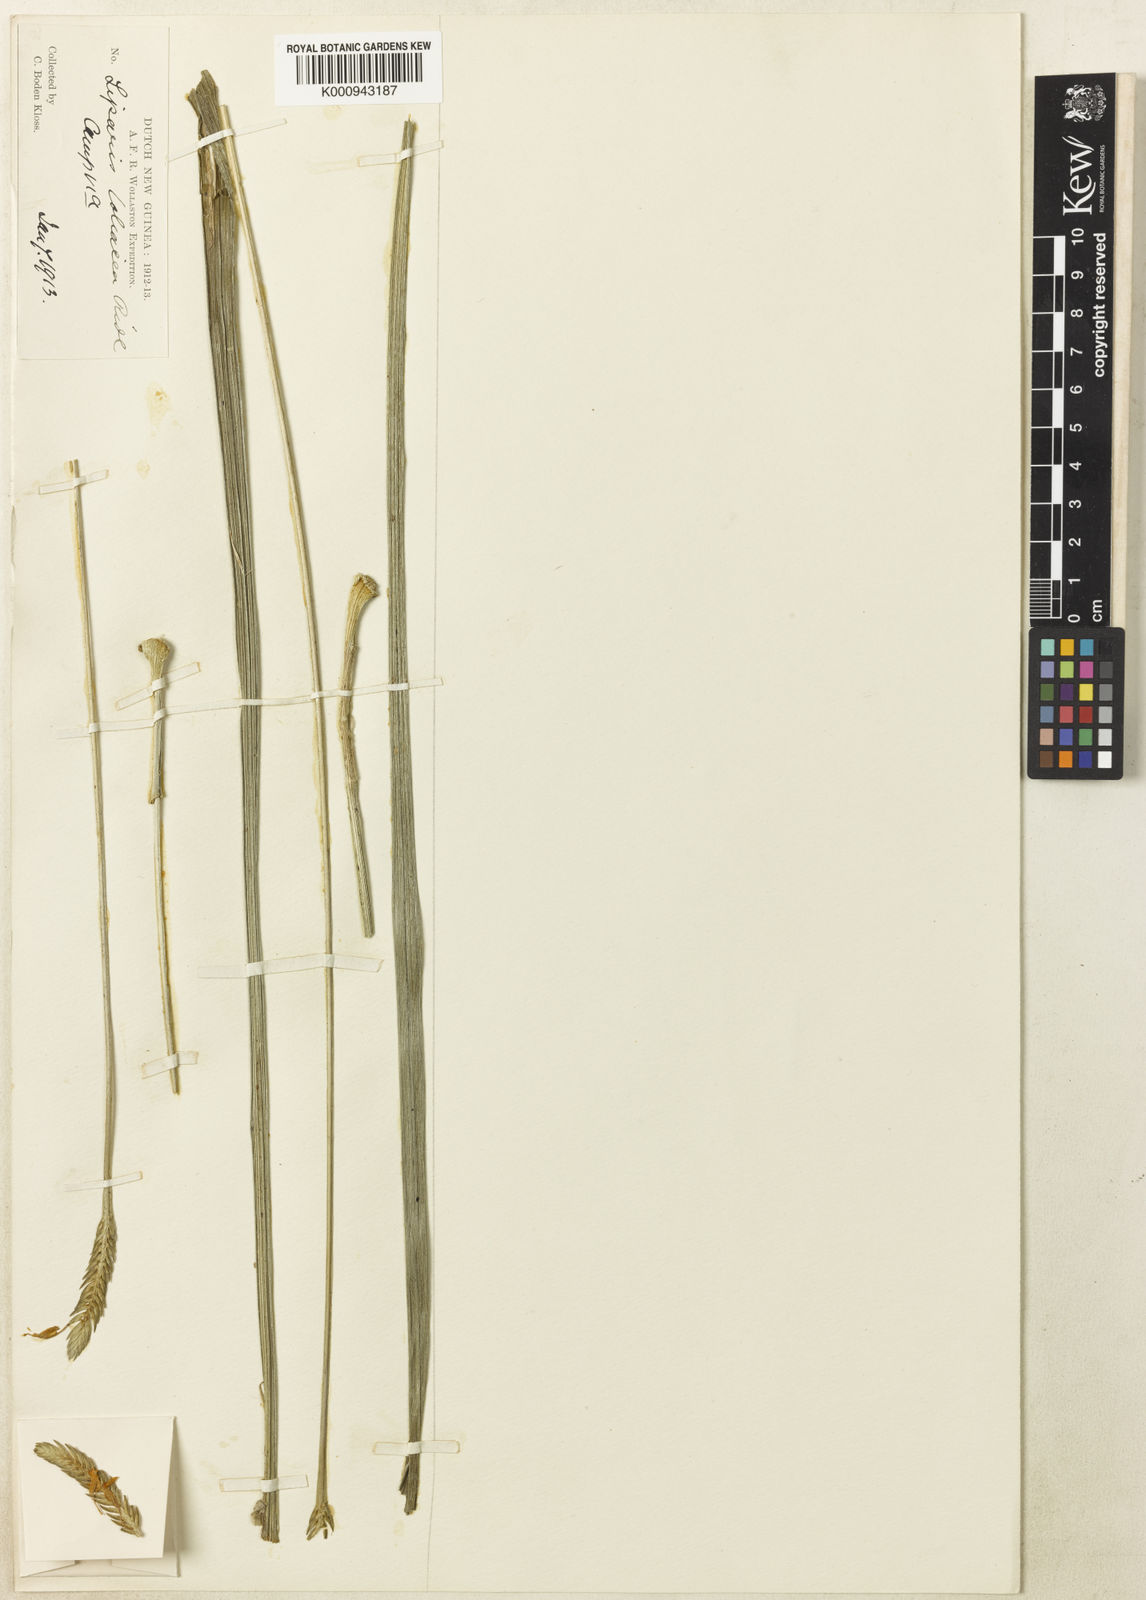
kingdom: Plantae
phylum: Tracheophyta
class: Liliopsida
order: Asparagales
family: Orchidaceae
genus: Liparis
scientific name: Liparis loliacea
